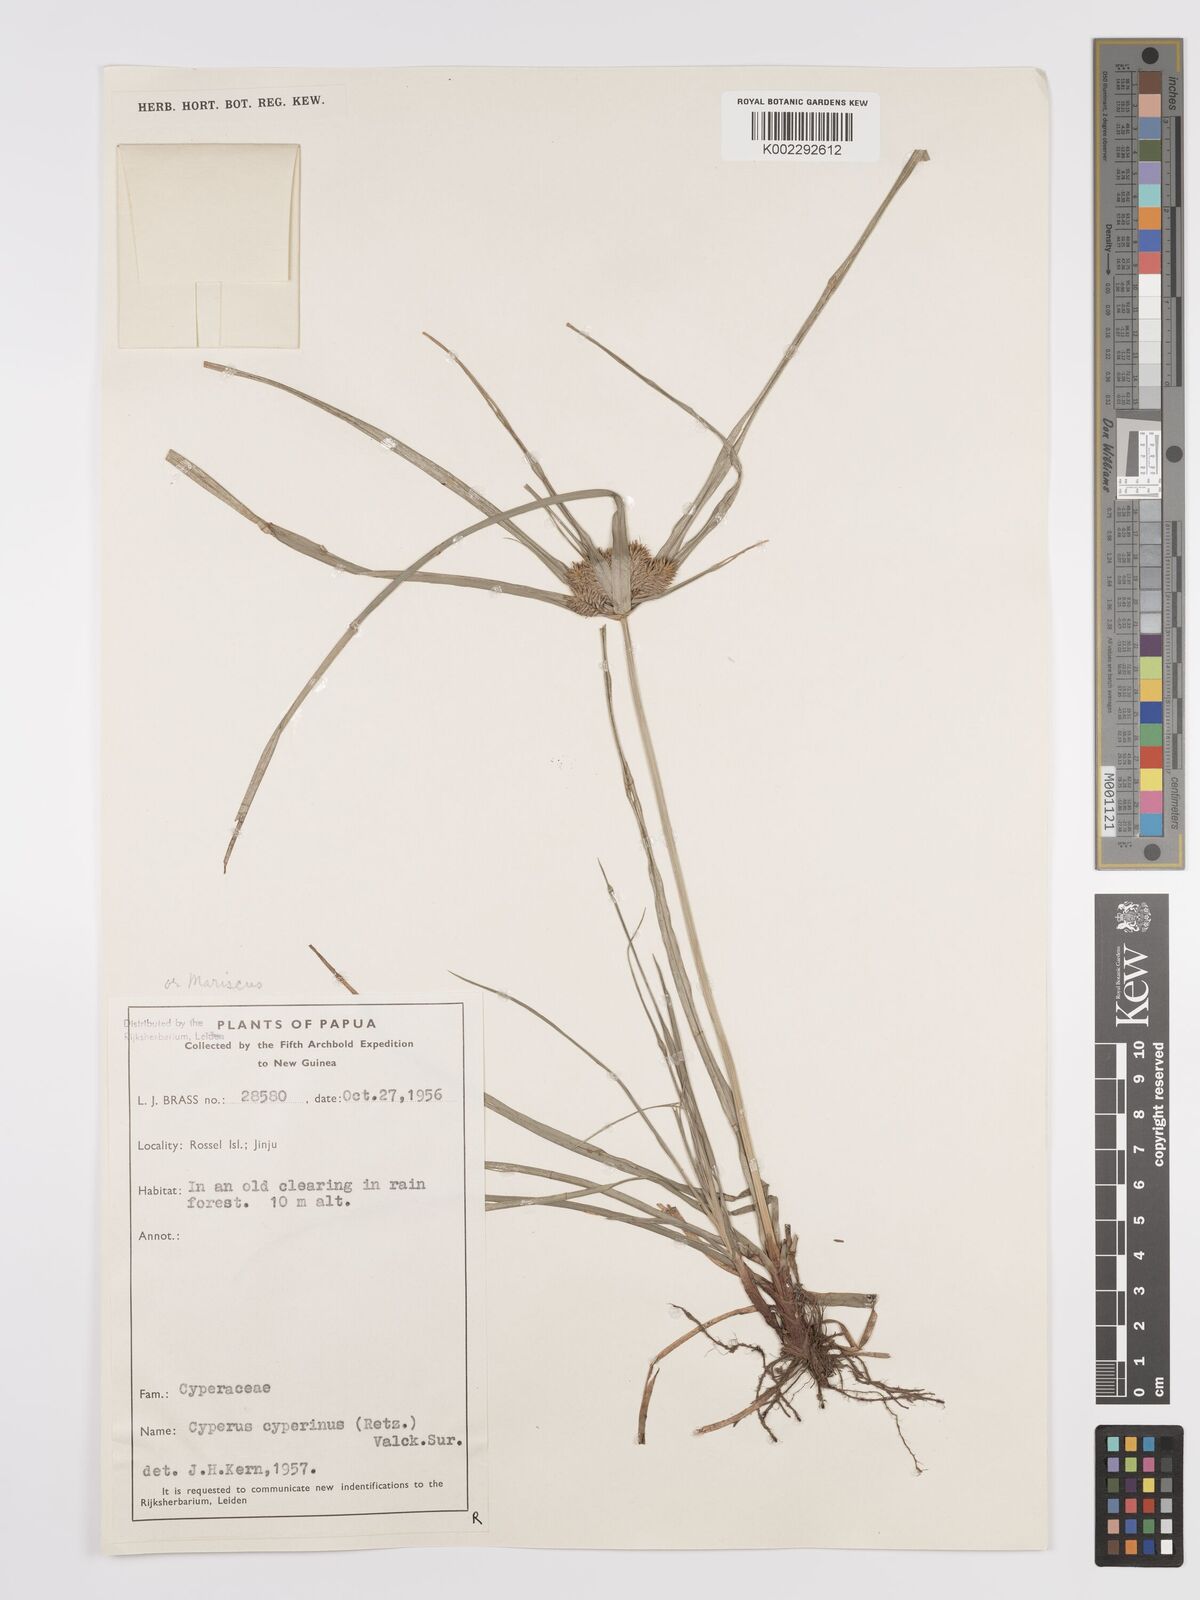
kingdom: Plantae
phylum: Tracheophyta
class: Liliopsida
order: Poales
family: Cyperaceae
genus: Cyperus
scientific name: Cyperus cyperinus
